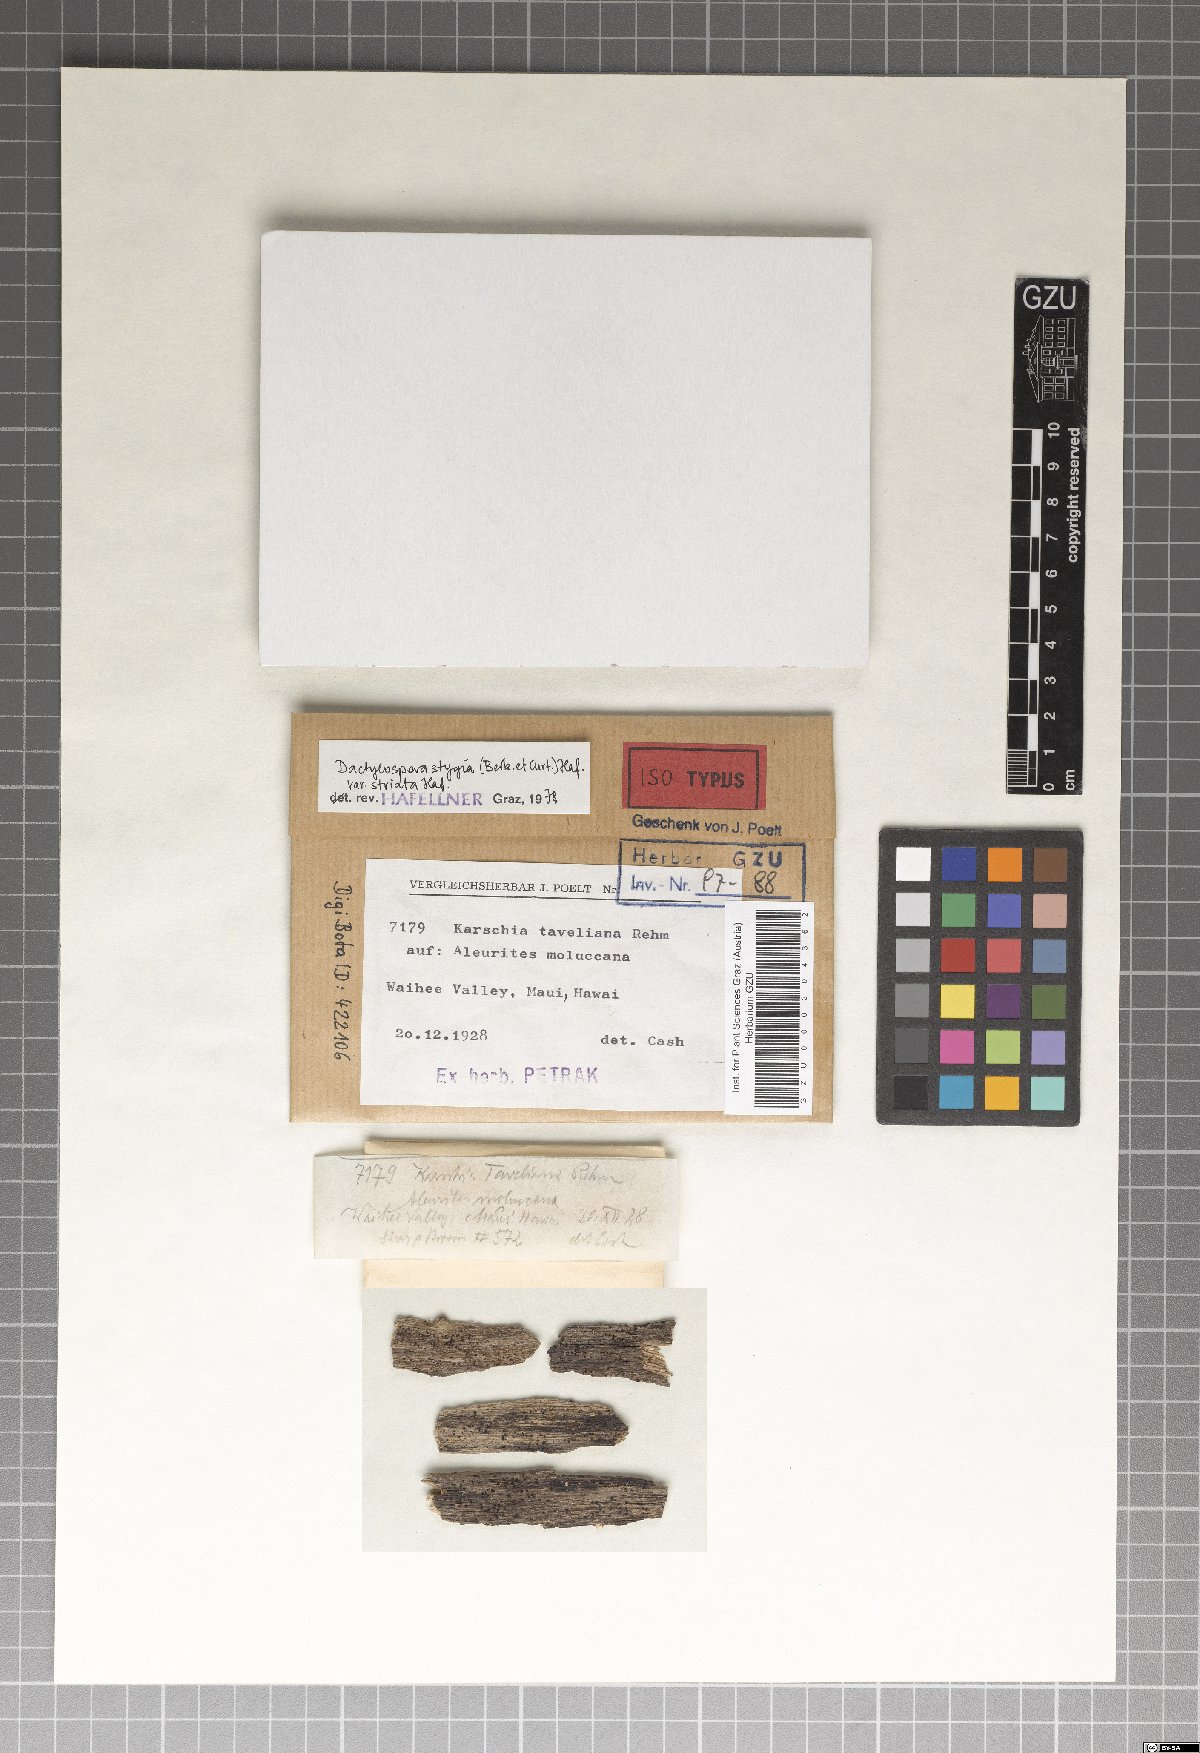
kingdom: Fungi
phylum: Ascomycota
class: Eurotiomycetes
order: Sclerococcales
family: Sclerococcaceae
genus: Sclerococcum
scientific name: Sclerococcum stygium
